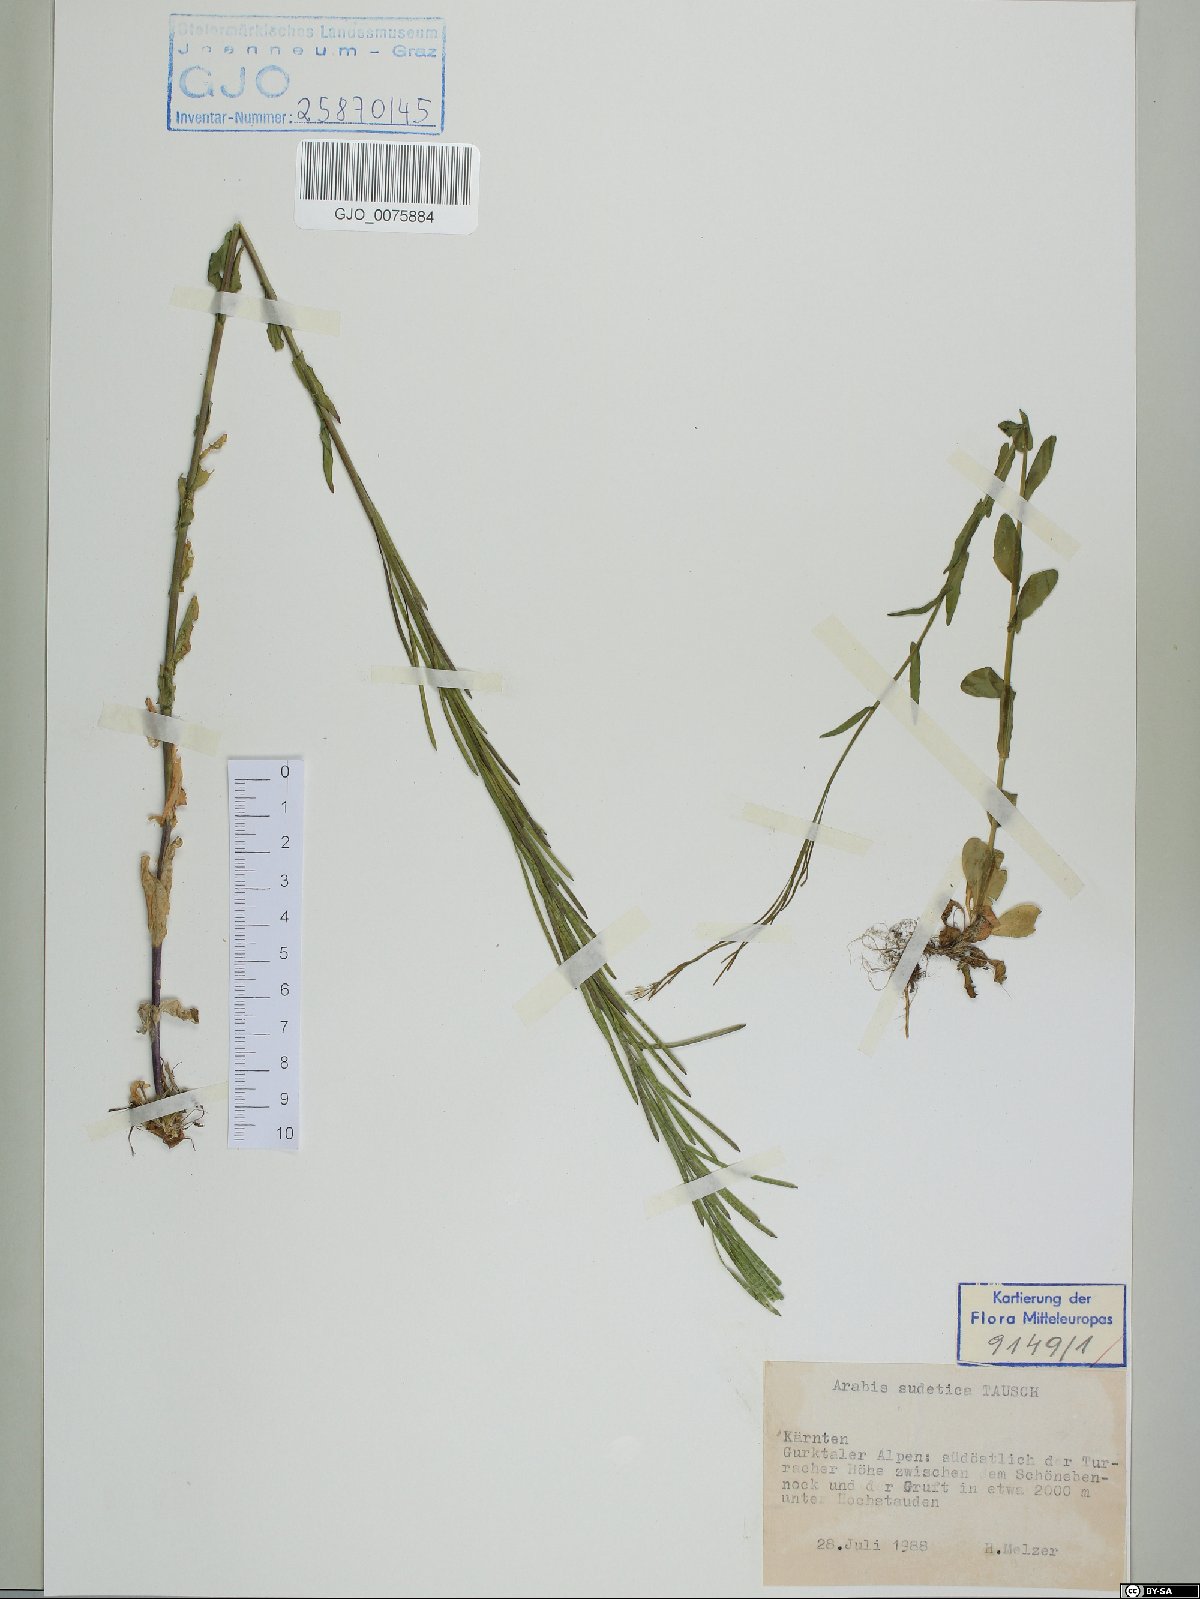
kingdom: Plantae
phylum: Tracheophyta
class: Magnoliopsida
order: Brassicales
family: Brassicaceae
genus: Arabis
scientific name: Arabis sudetica
